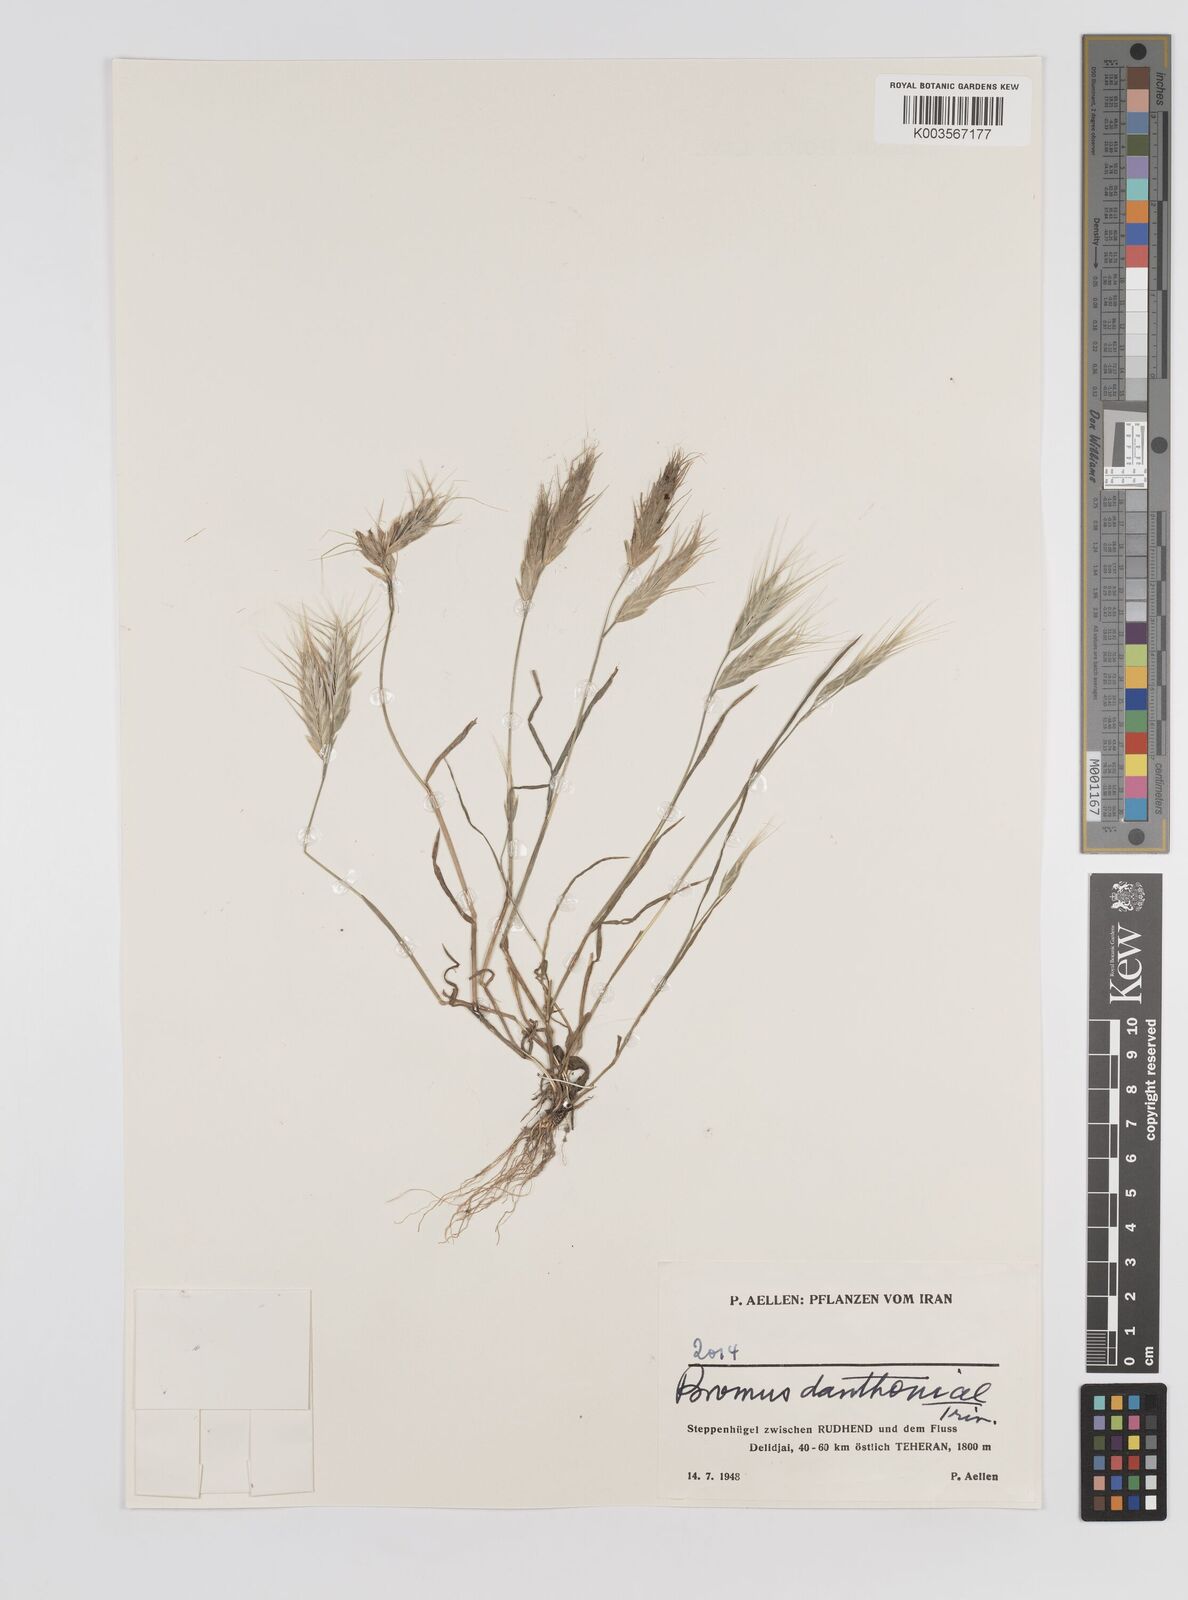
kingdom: Plantae
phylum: Tracheophyta
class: Liliopsida
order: Poales
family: Poaceae
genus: Bromus
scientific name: Bromus danthoniae
